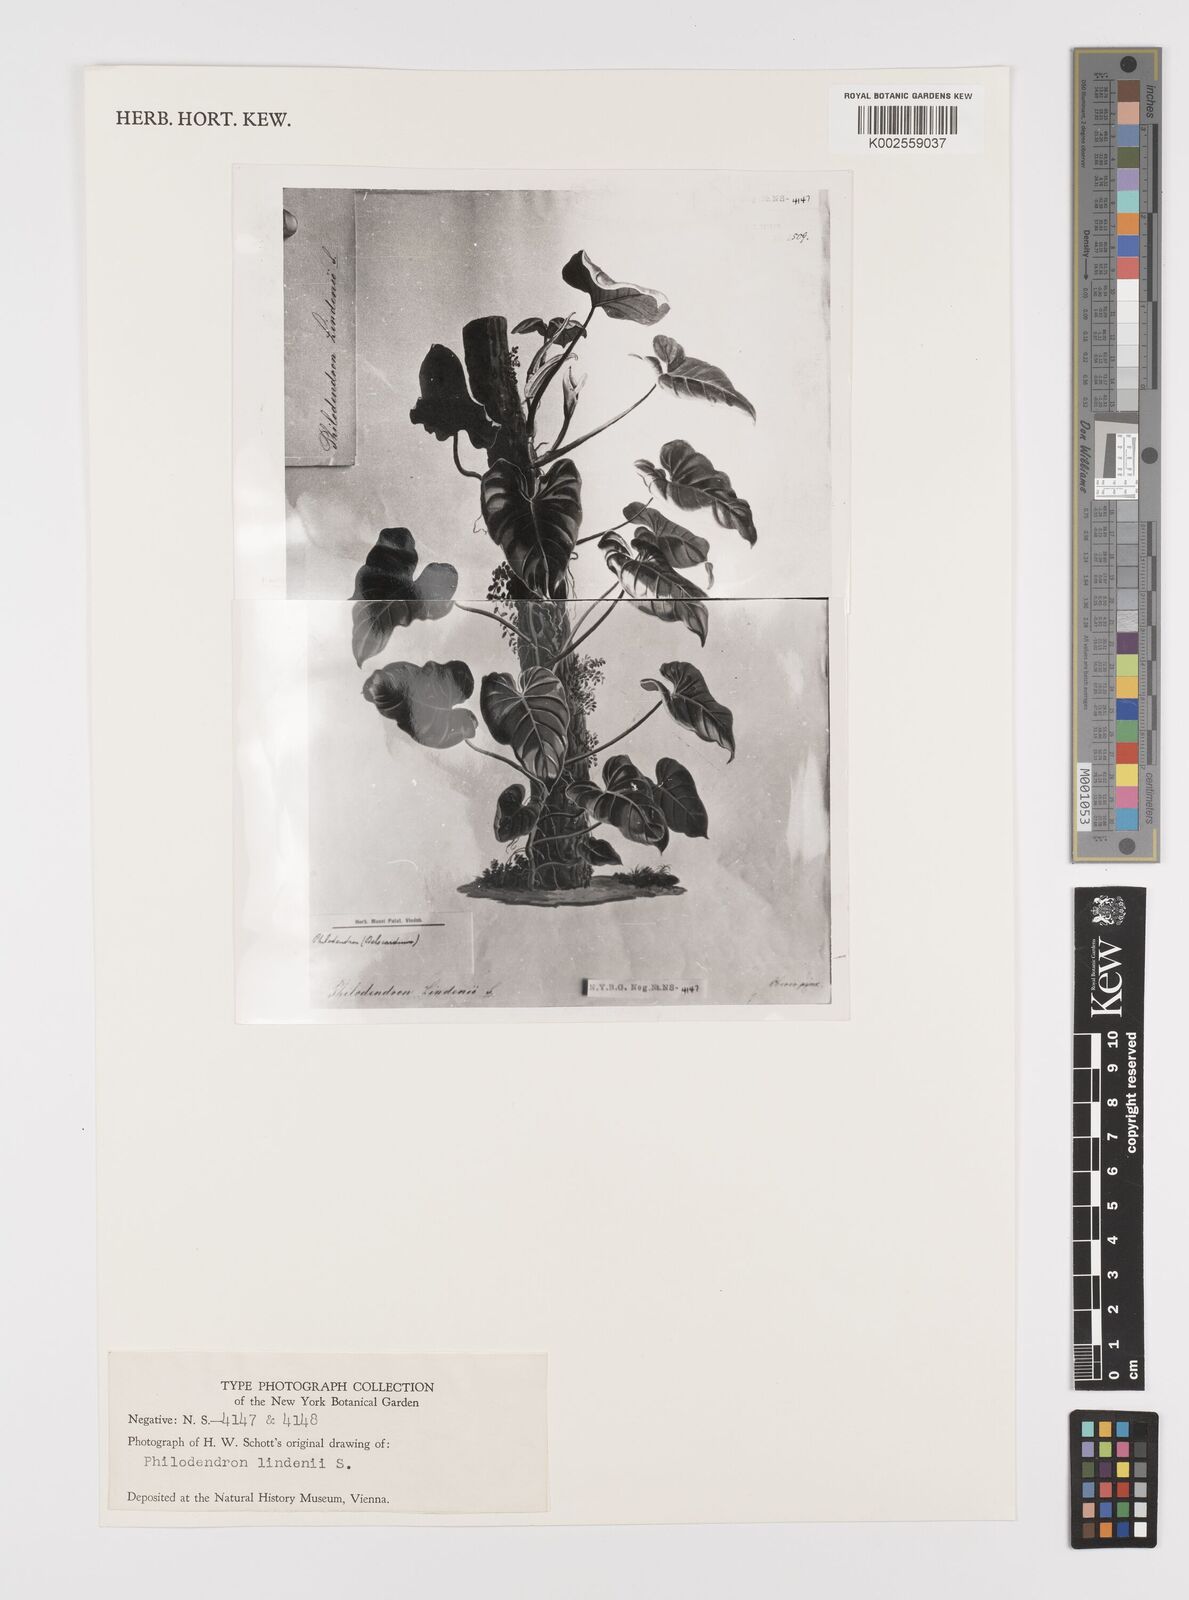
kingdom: Plantae
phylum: Tracheophyta
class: Liliopsida
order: Alismatales
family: Araceae
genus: Philodendron
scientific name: Philodendron lindenii
